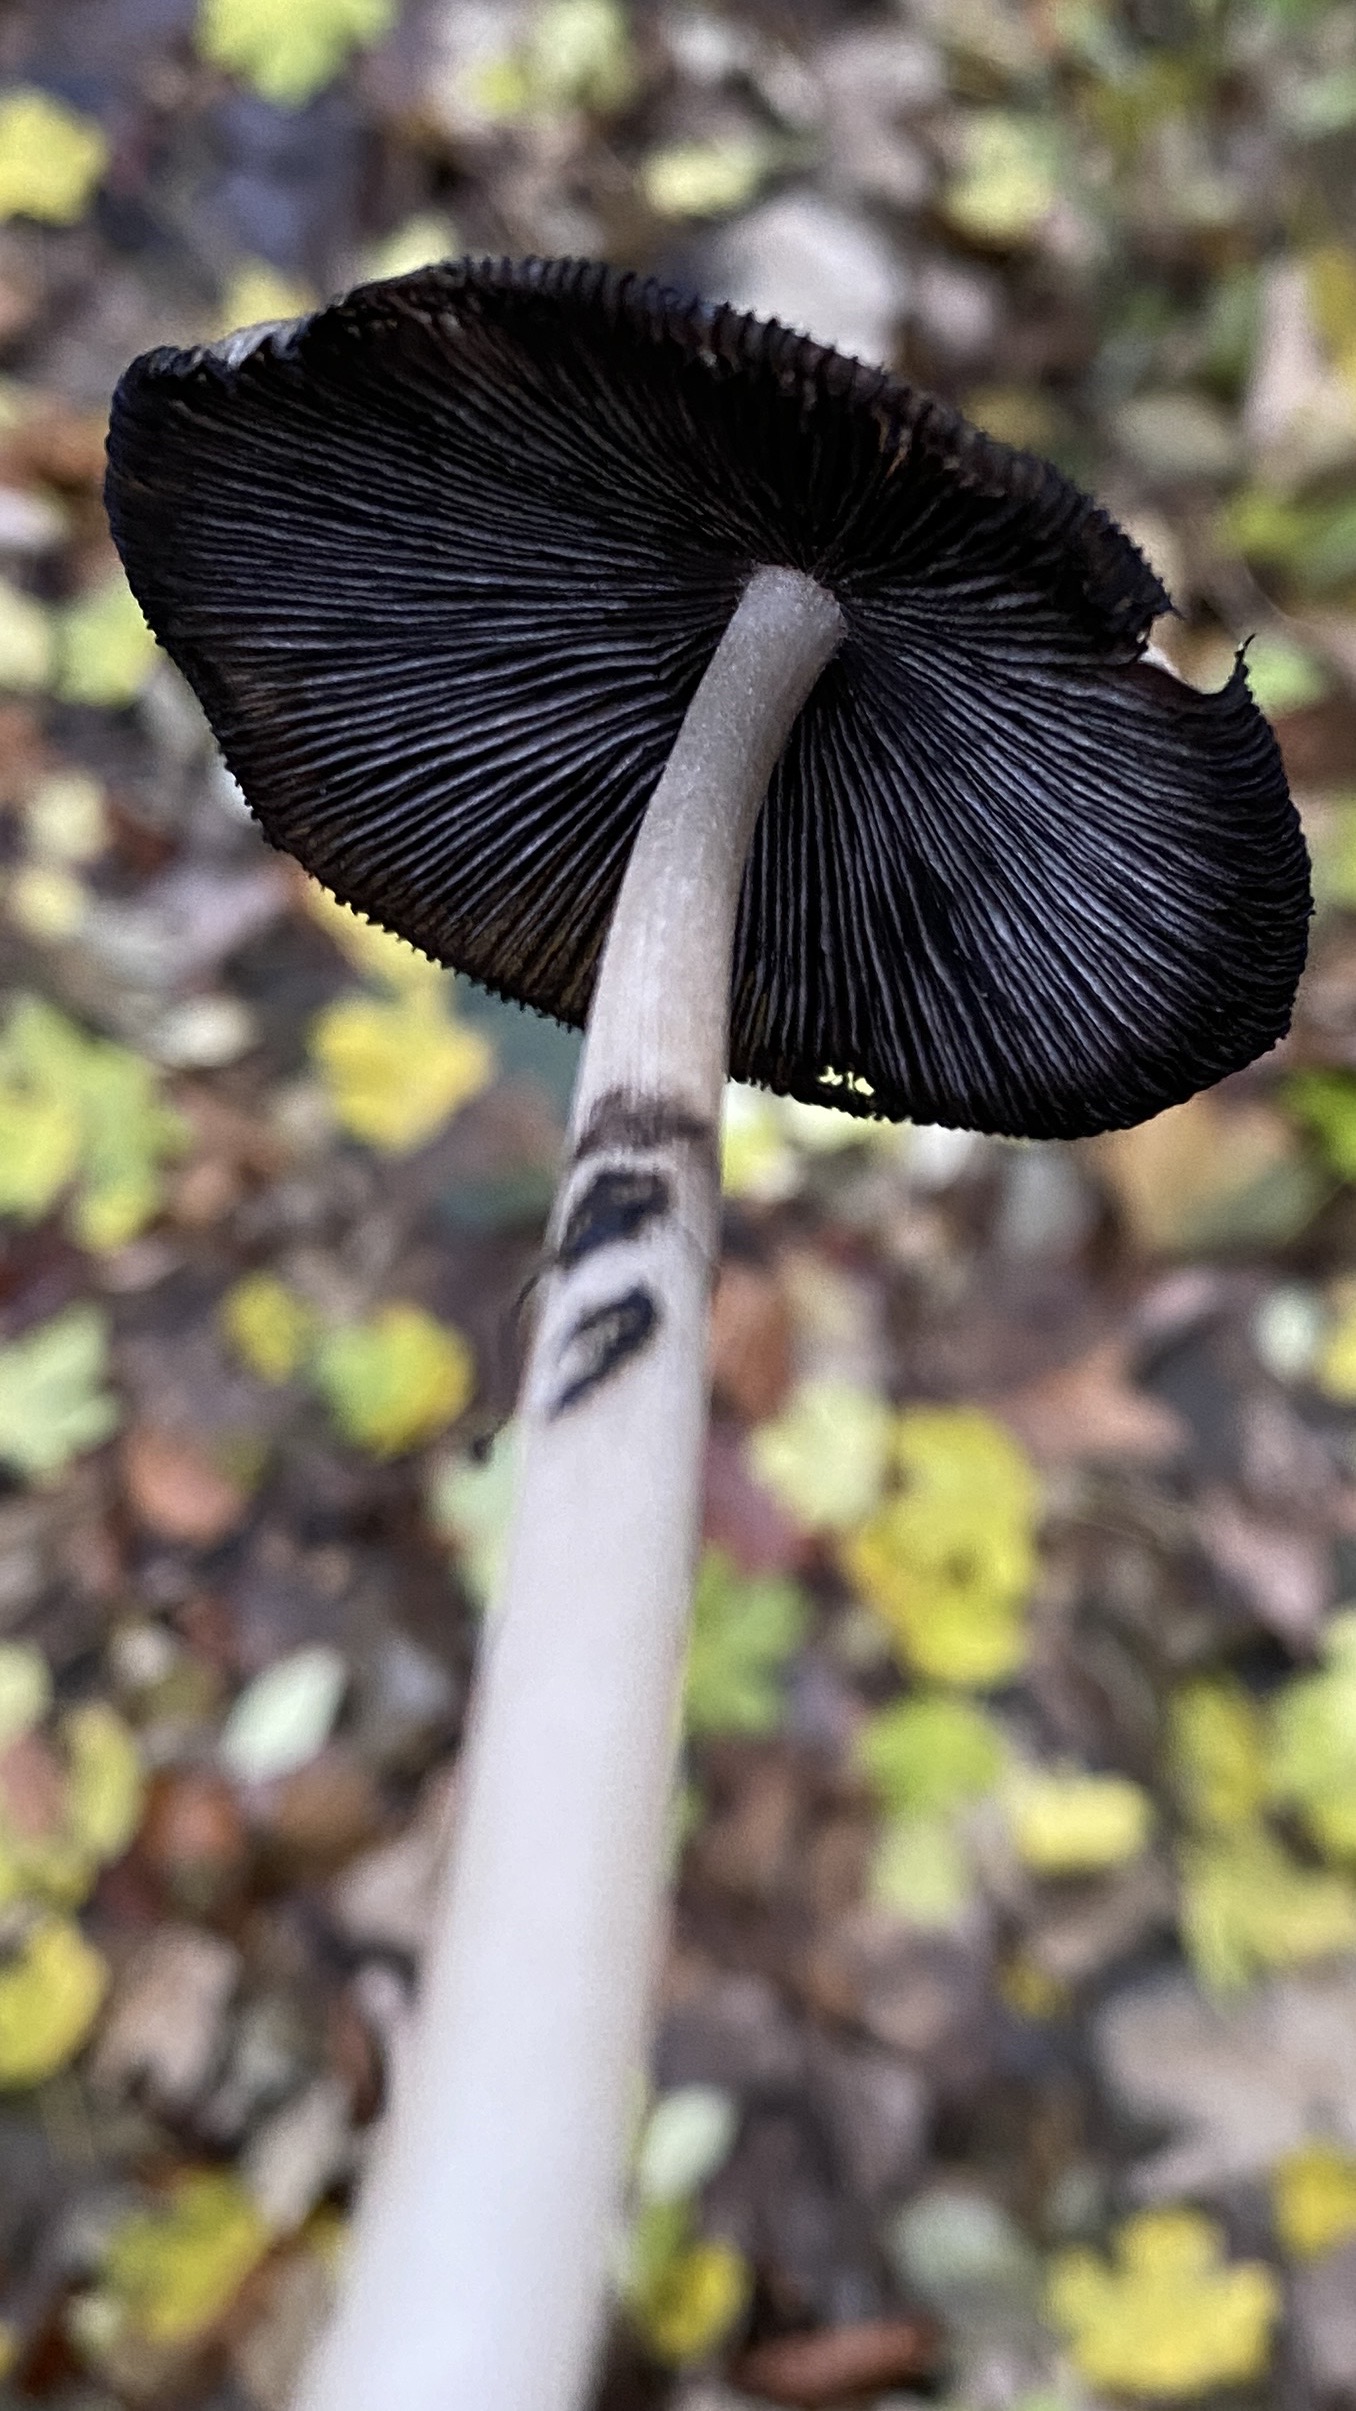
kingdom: Fungi
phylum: Basidiomycota
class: Agaricomycetes
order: Agaricales
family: Psathyrellaceae
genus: Coprinellus
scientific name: Coprinellus
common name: blækhat
